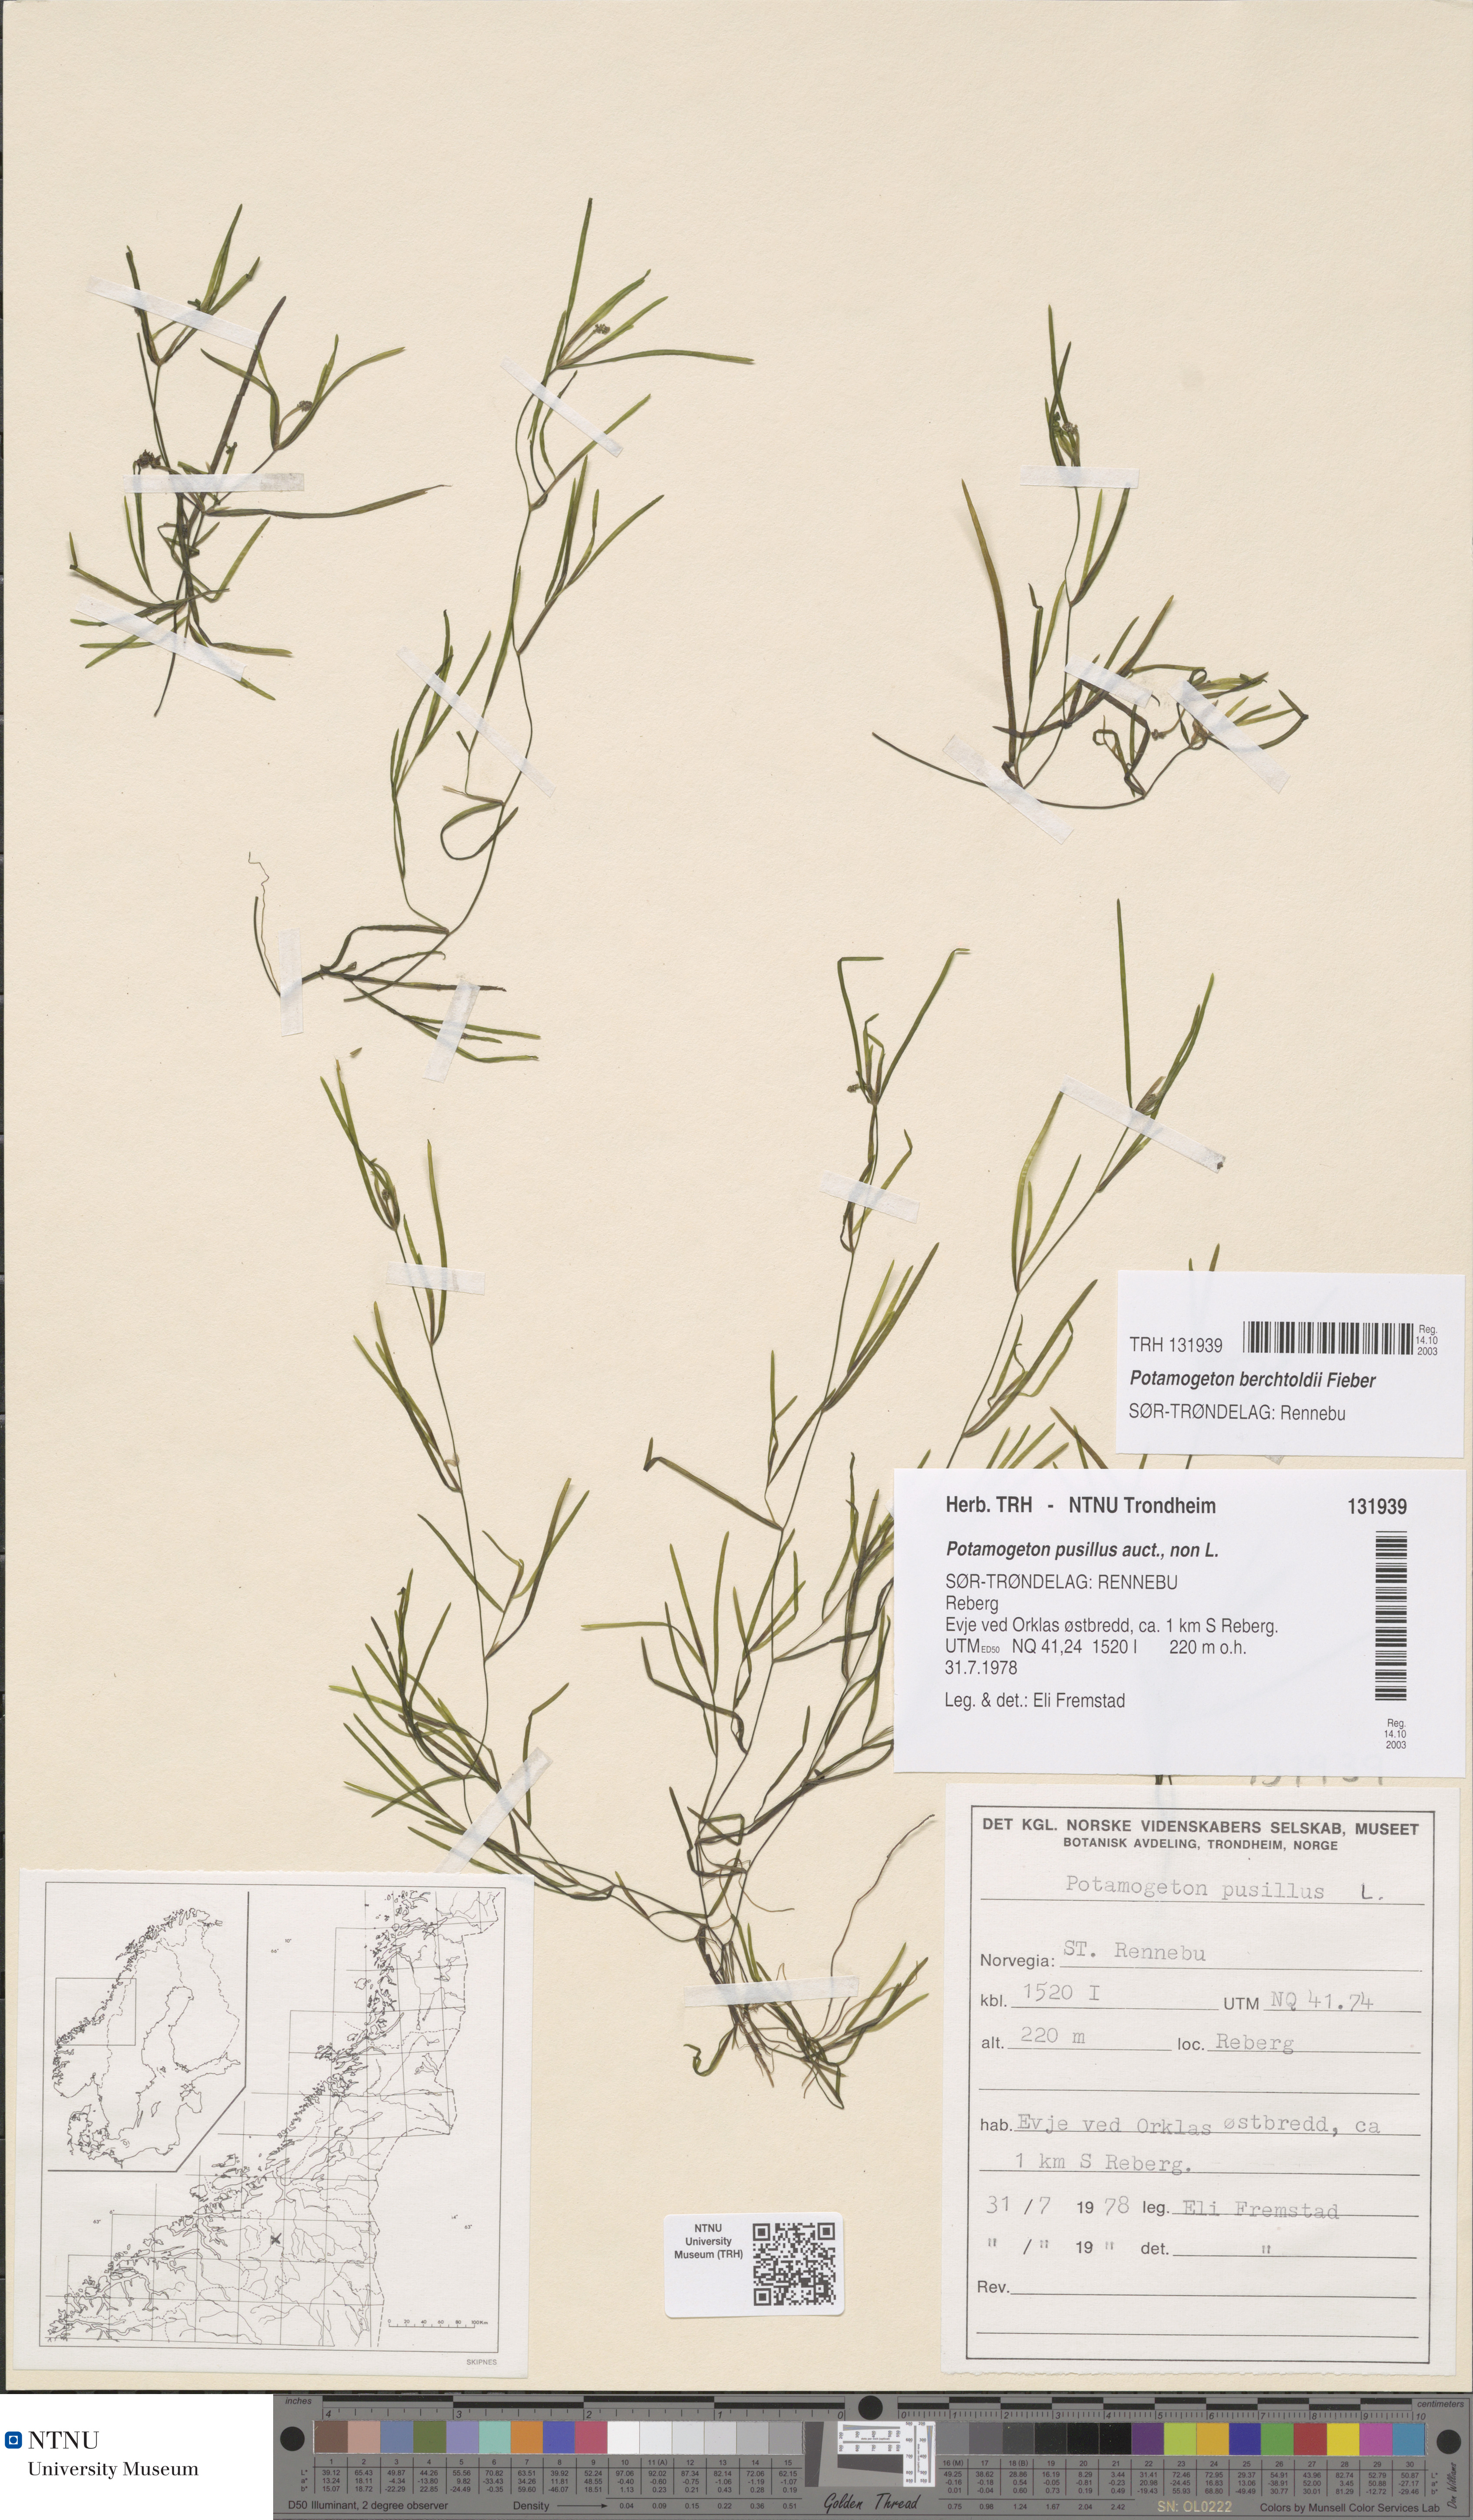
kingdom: Plantae
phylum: Tracheophyta
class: Liliopsida
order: Alismatales
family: Potamogetonaceae
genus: Potamogeton
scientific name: Potamogeton berchtoldii
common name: Small pondweed
